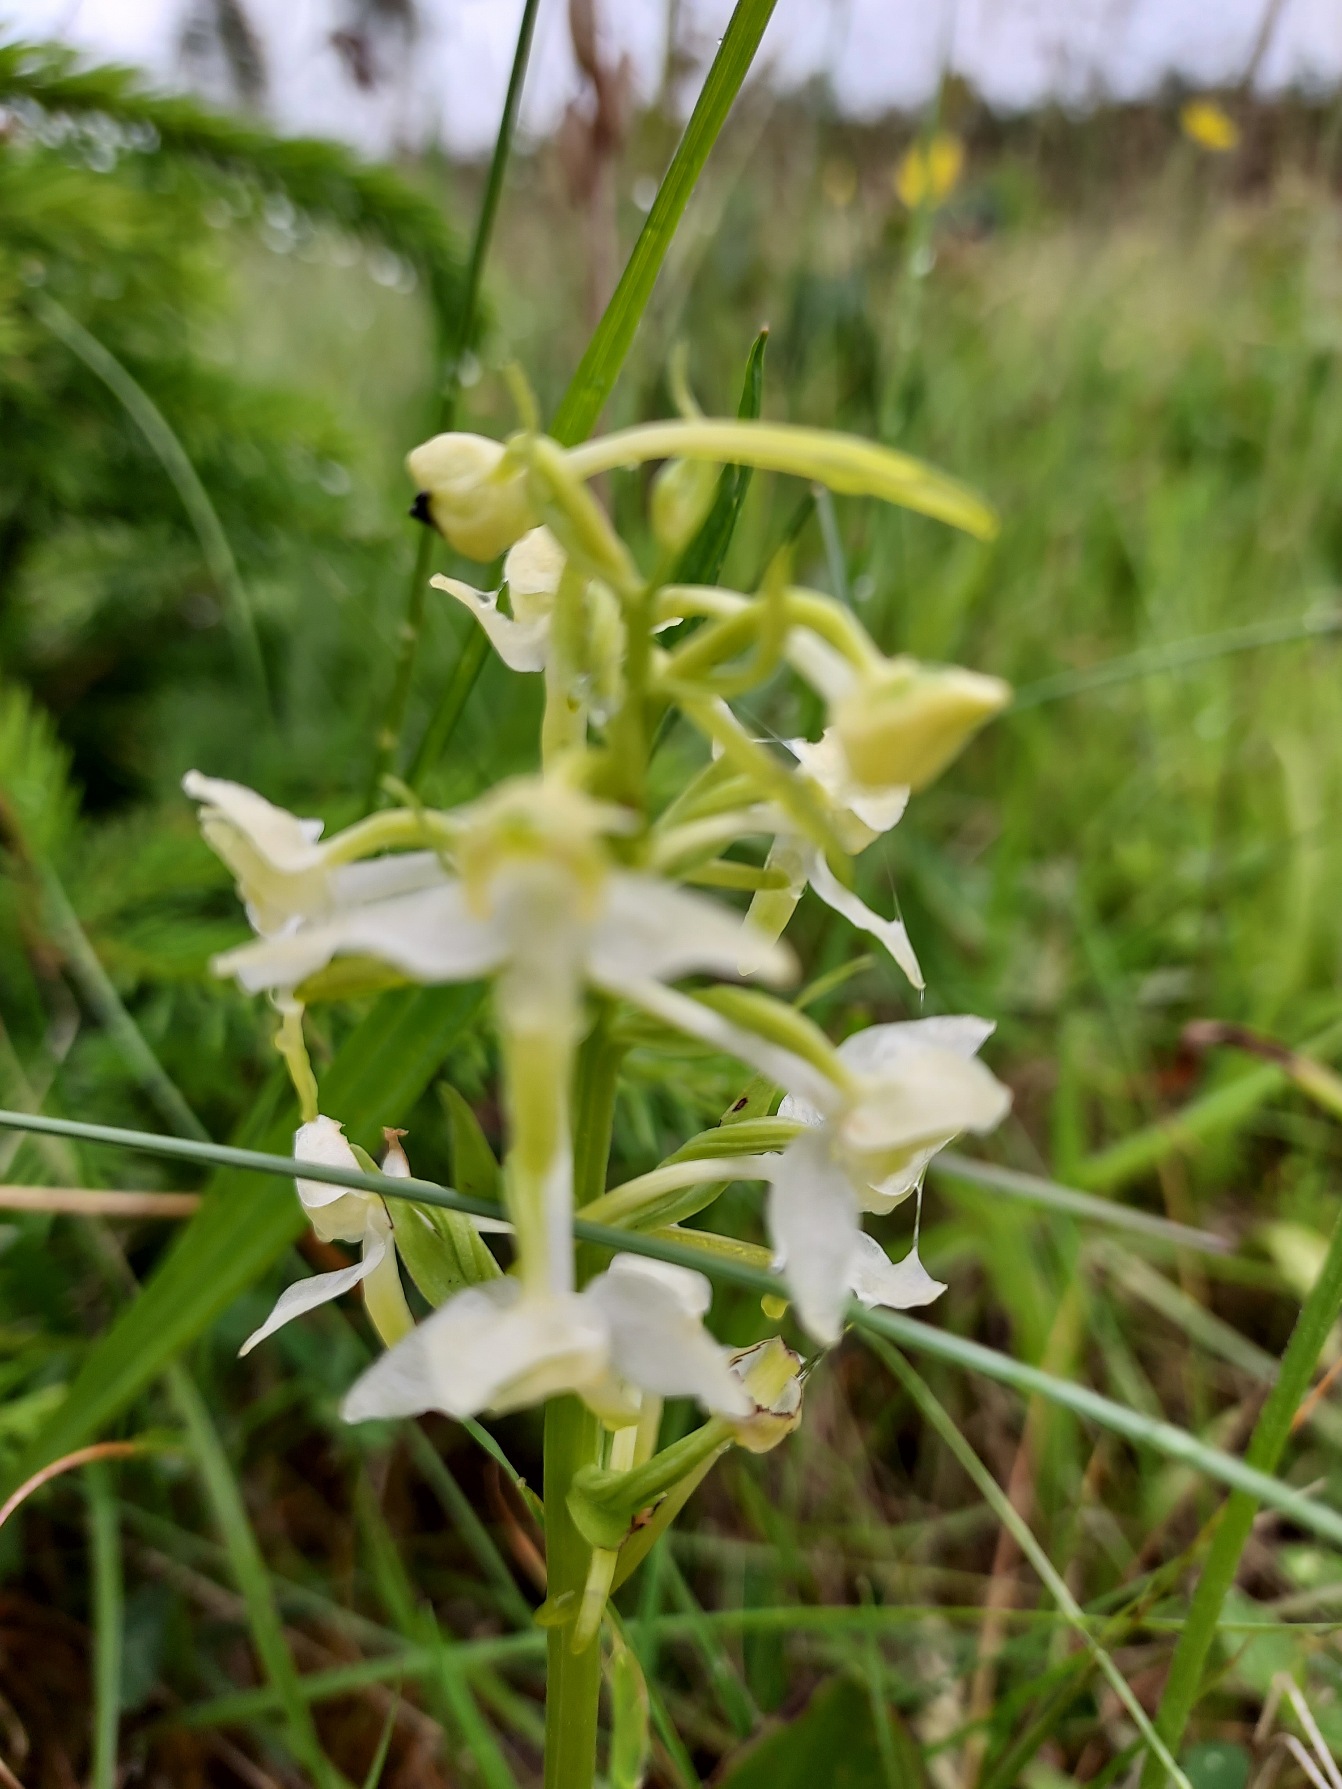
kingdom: Plantae
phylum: Tracheophyta
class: Liliopsida
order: Asparagales
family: Orchidaceae
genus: Platanthera
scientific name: Platanthera chlorantha
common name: Skov-gøgelilje
